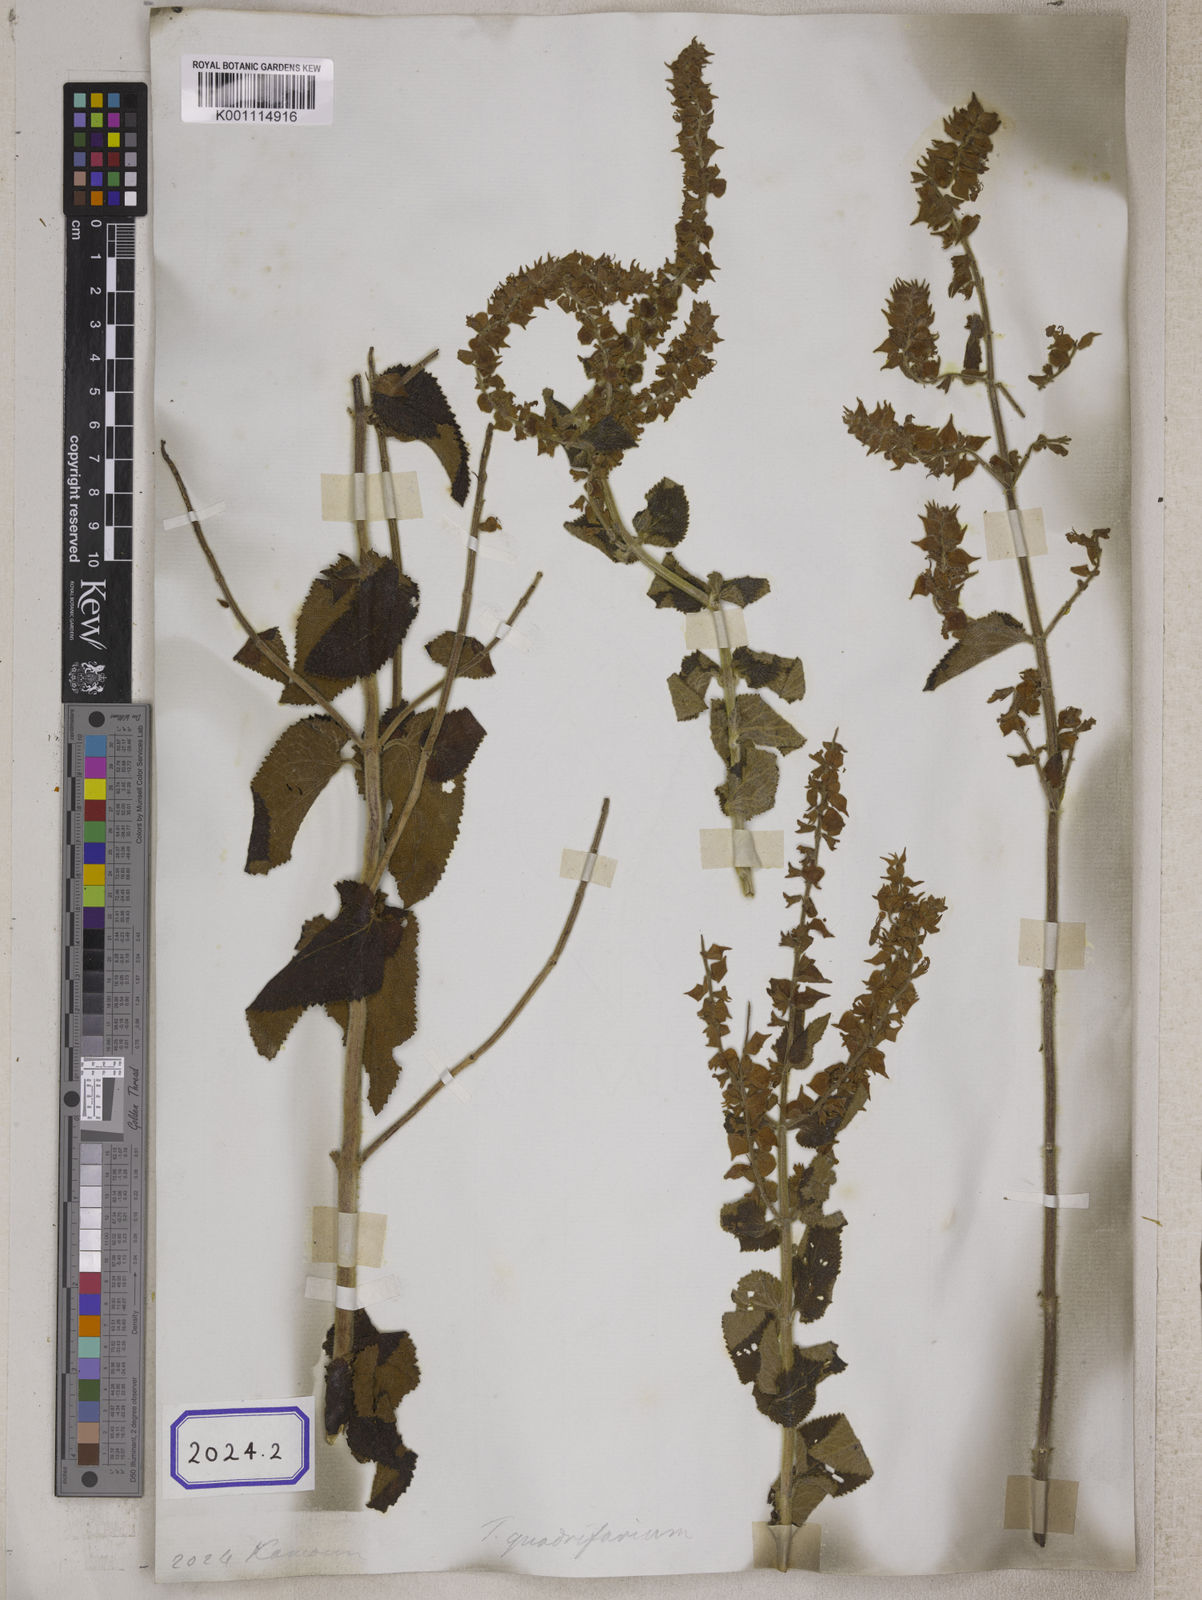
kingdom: Plantae
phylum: Tracheophyta
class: Magnoliopsida
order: Lamiales
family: Lamiaceae
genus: Teucrium
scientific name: Teucrium
